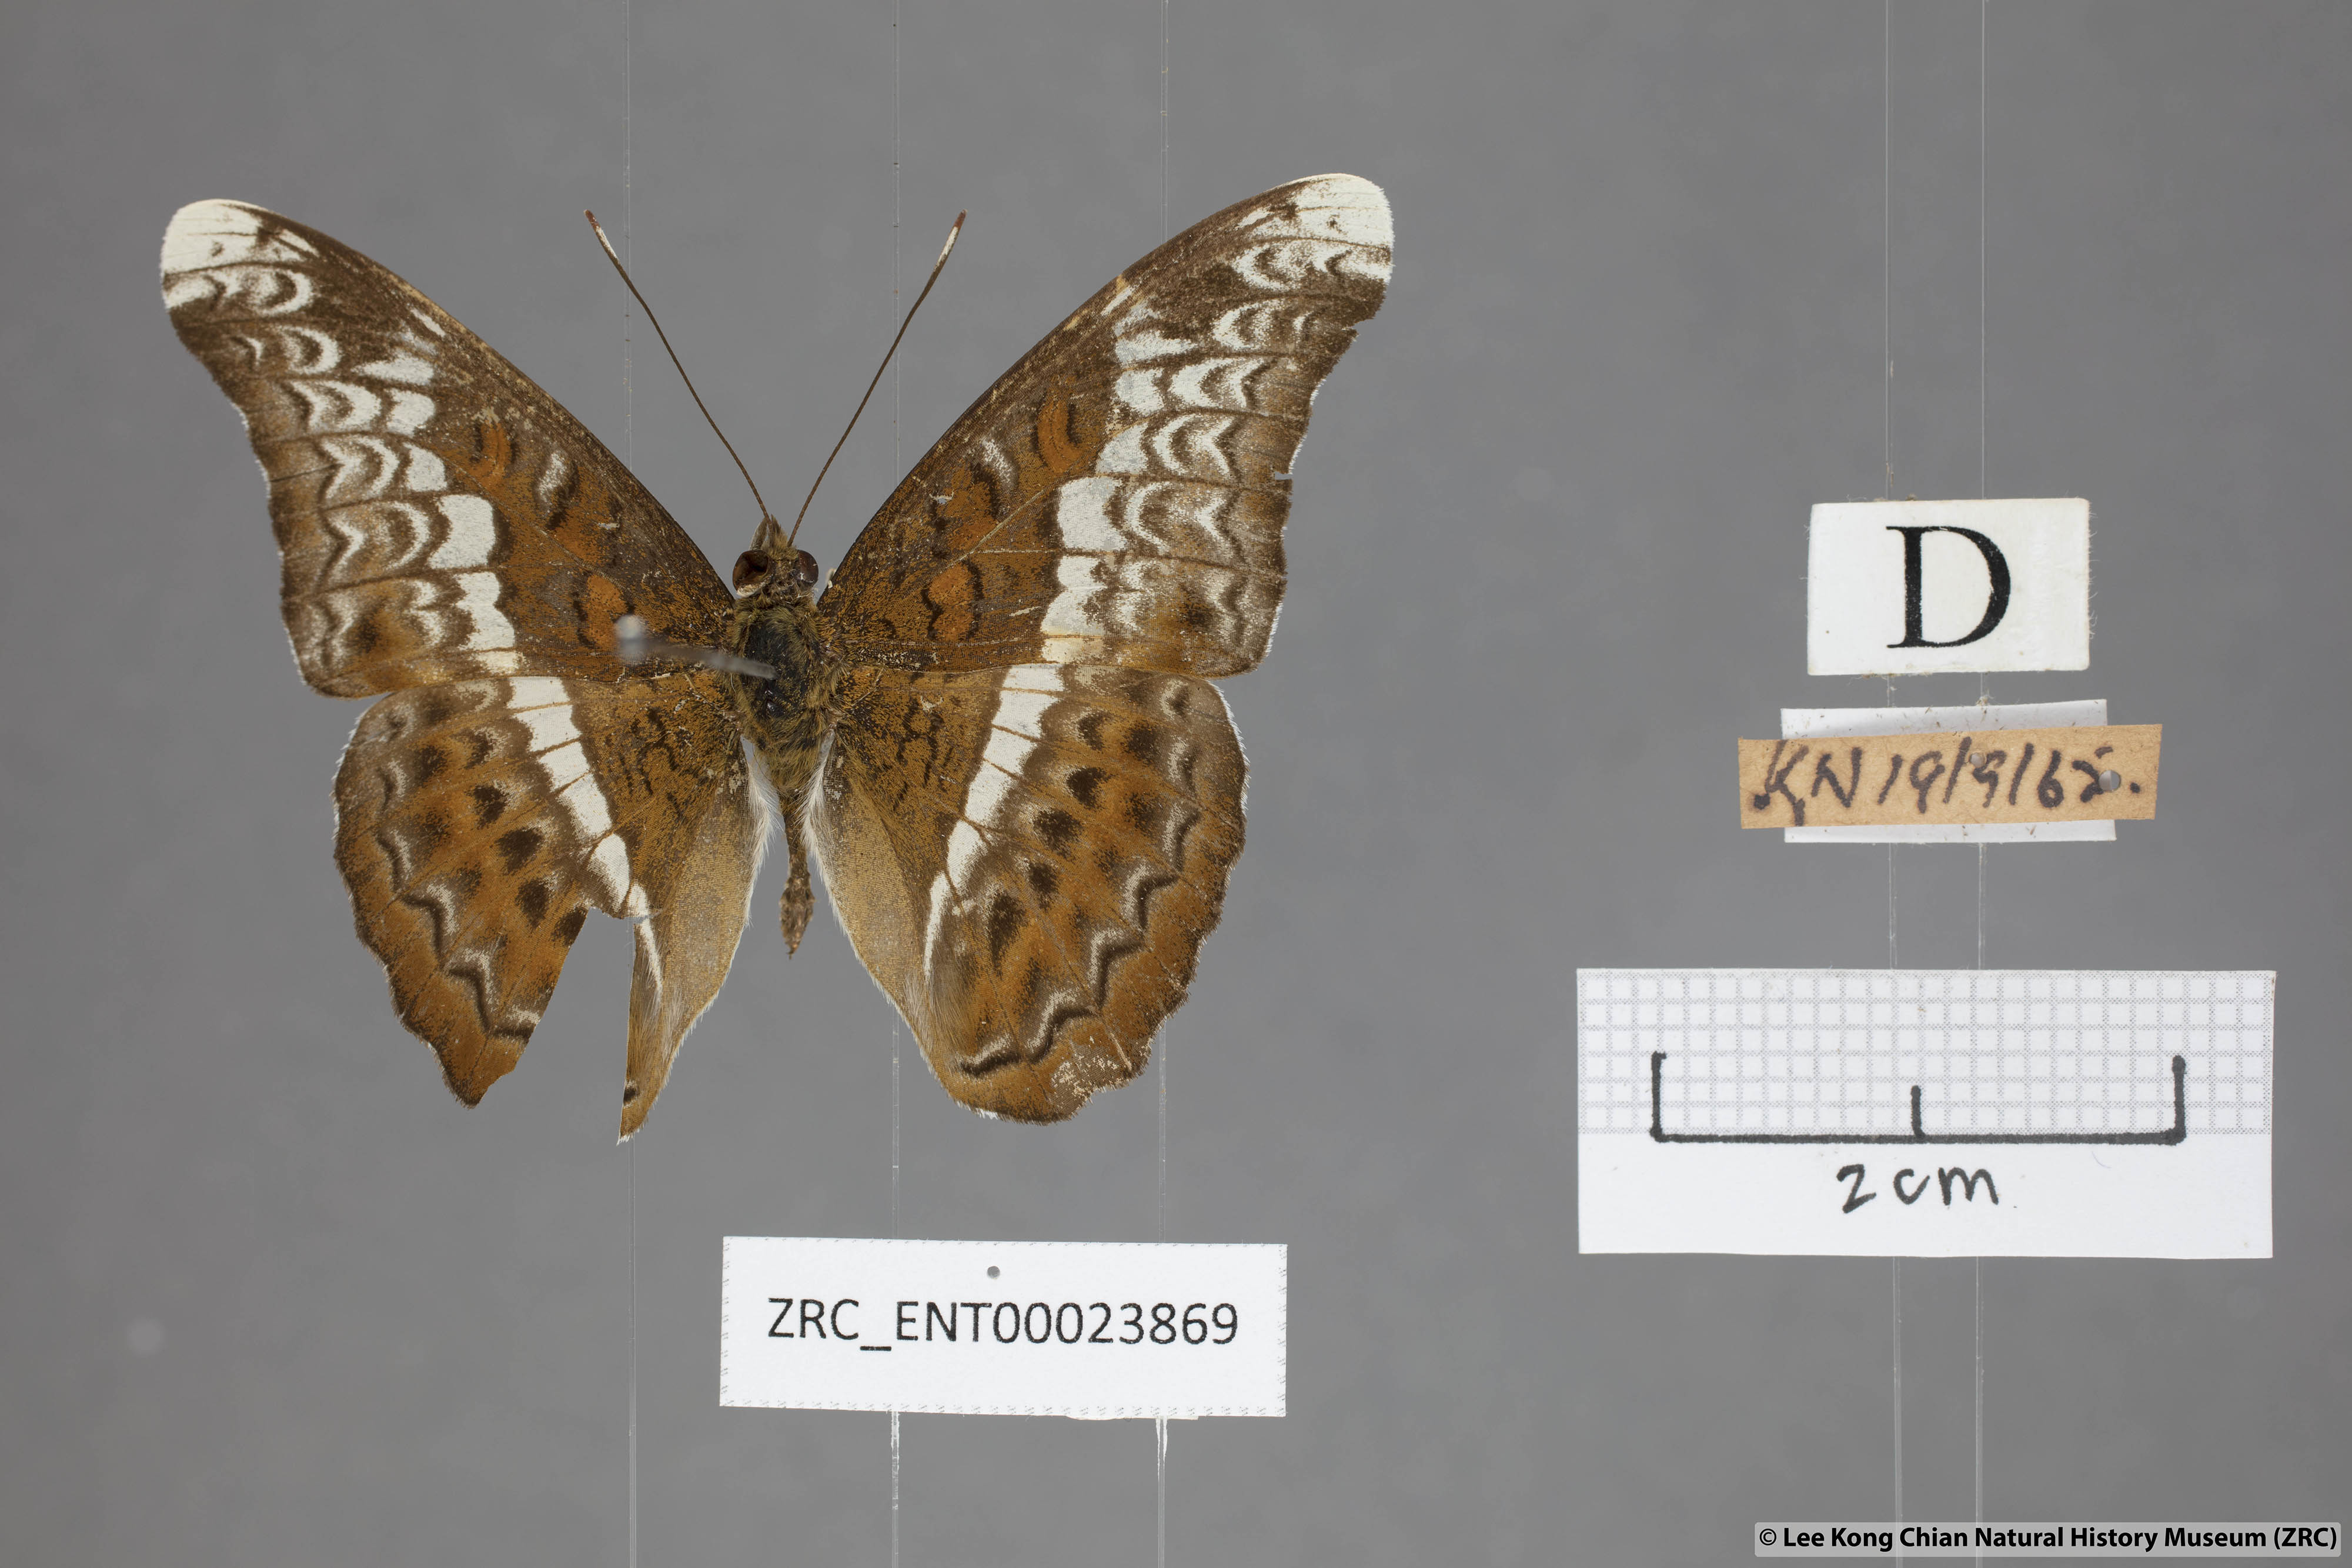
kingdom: Animalia
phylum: Arthropoda
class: Insecta
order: Lepidoptera
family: Nymphalidae
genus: Lebadea
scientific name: Lebadea martha
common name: Knight
